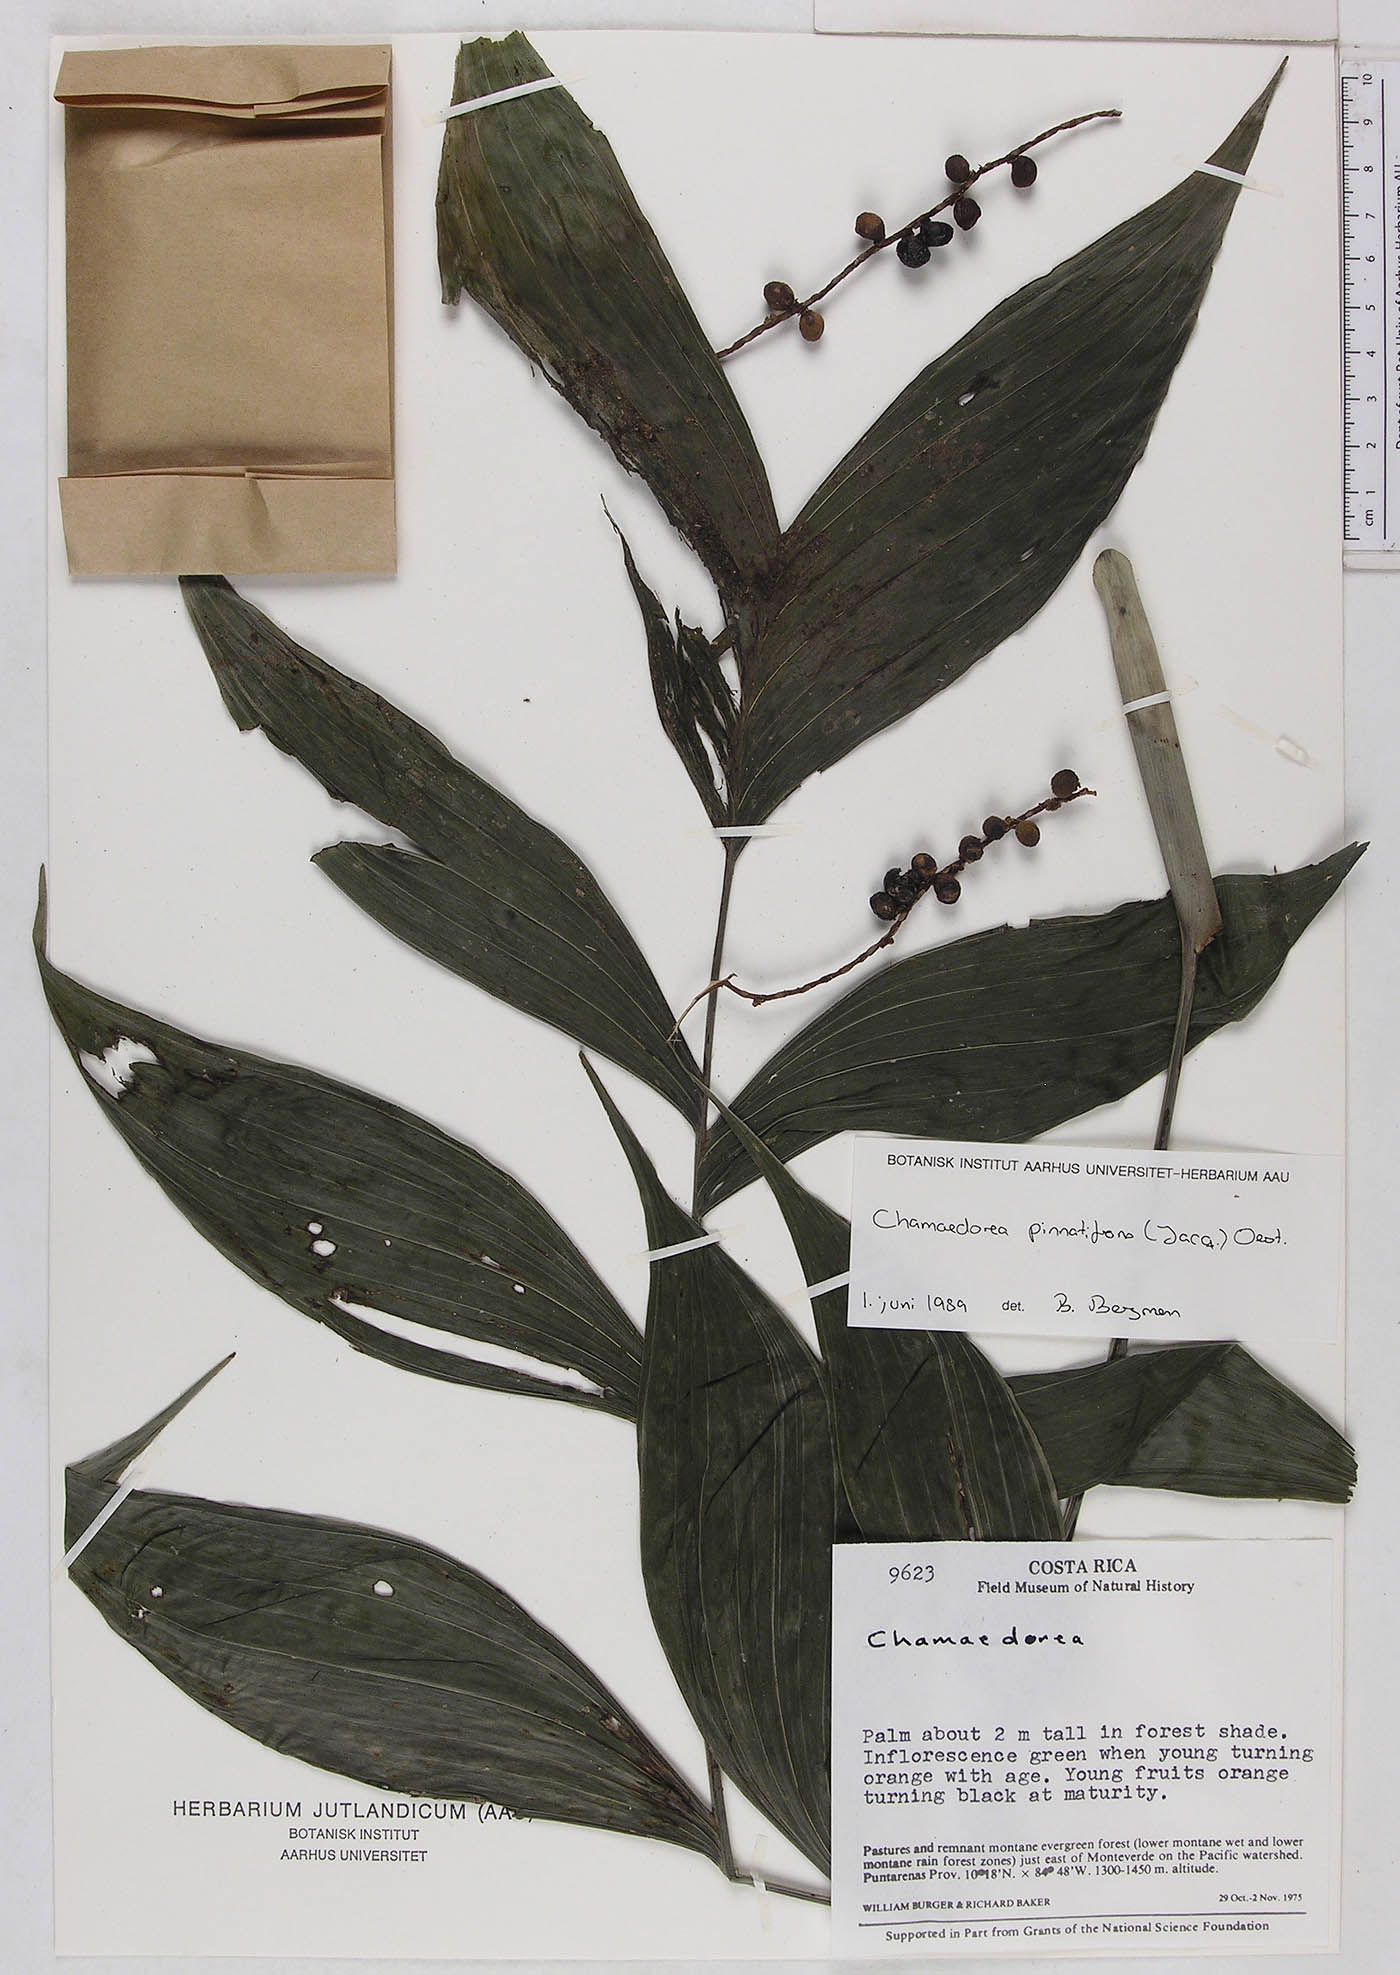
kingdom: Plantae
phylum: Tracheophyta
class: Liliopsida
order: Arecales
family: Arecaceae
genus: Chamaedorea
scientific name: Chamaedorea pinnatifrons
